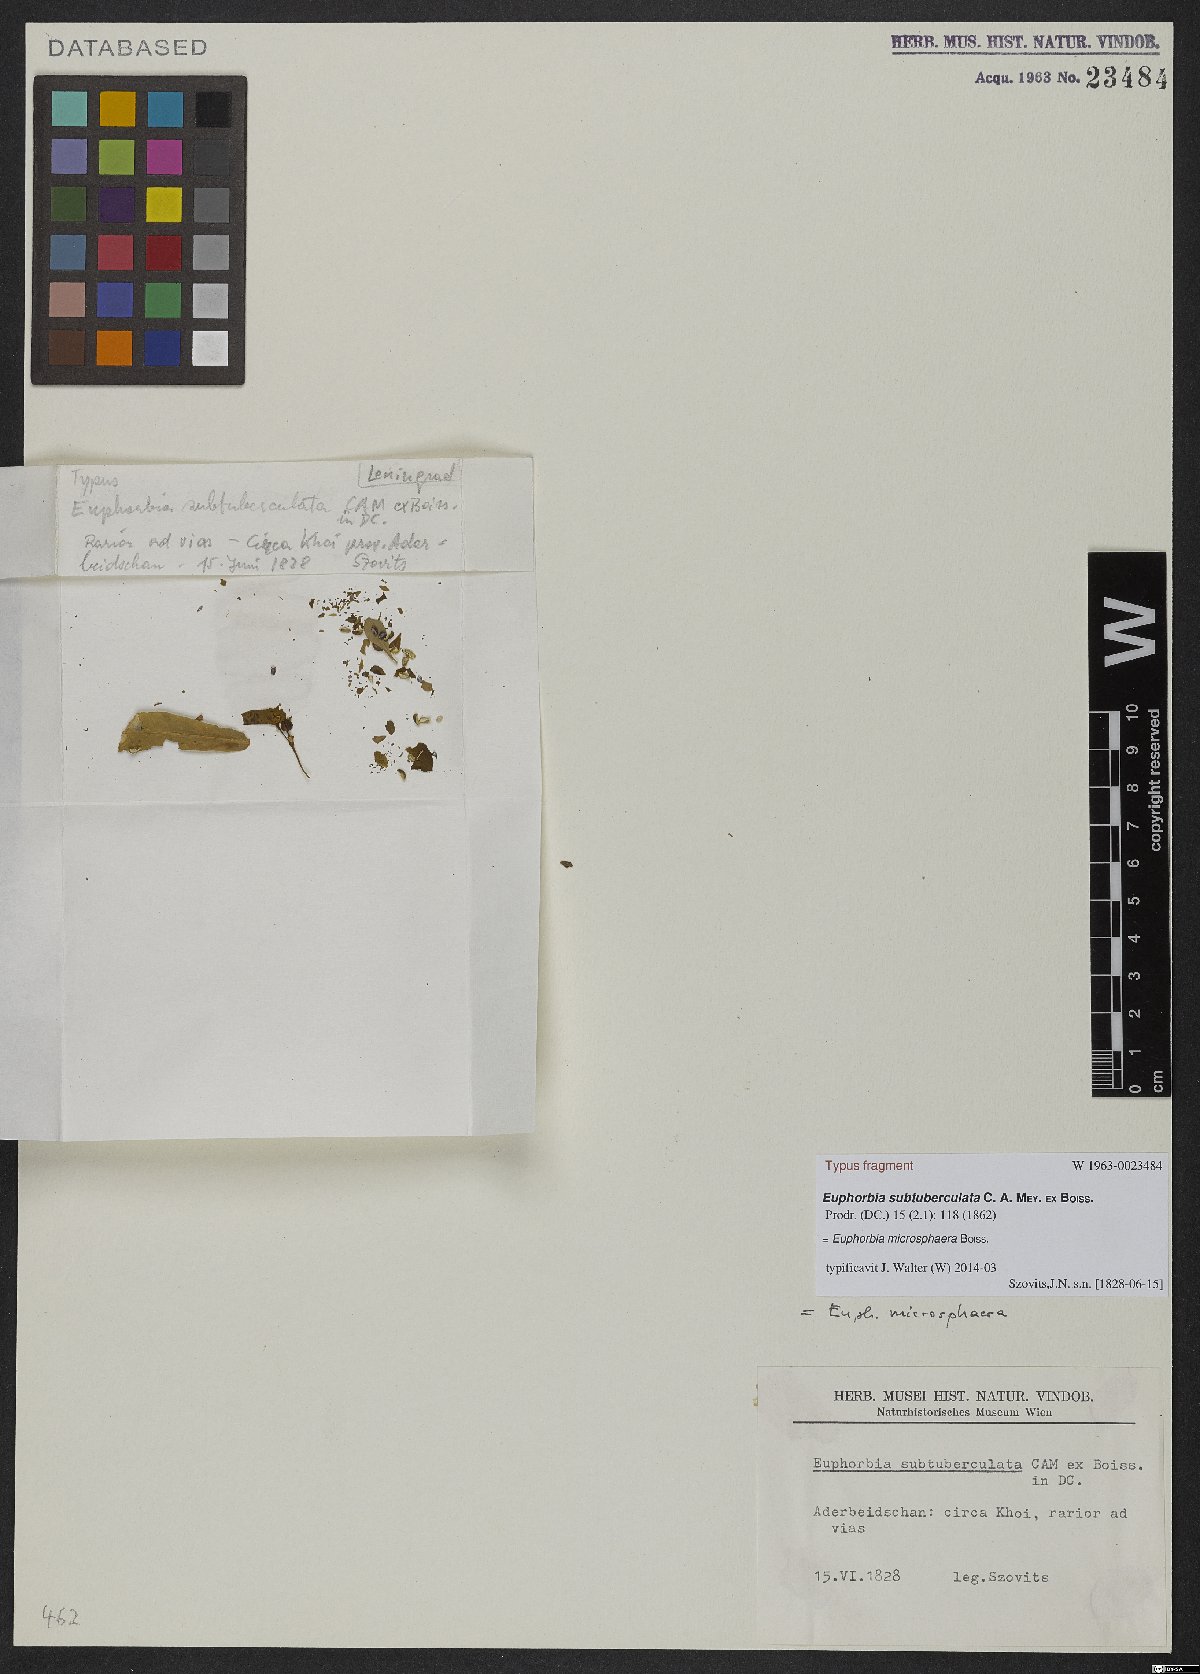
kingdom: Plantae
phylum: Tracheophyta
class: Magnoliopsida
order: Malpighiales
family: Euphorbiaceae
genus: Euphorbia
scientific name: Euphorbia microsphaera
